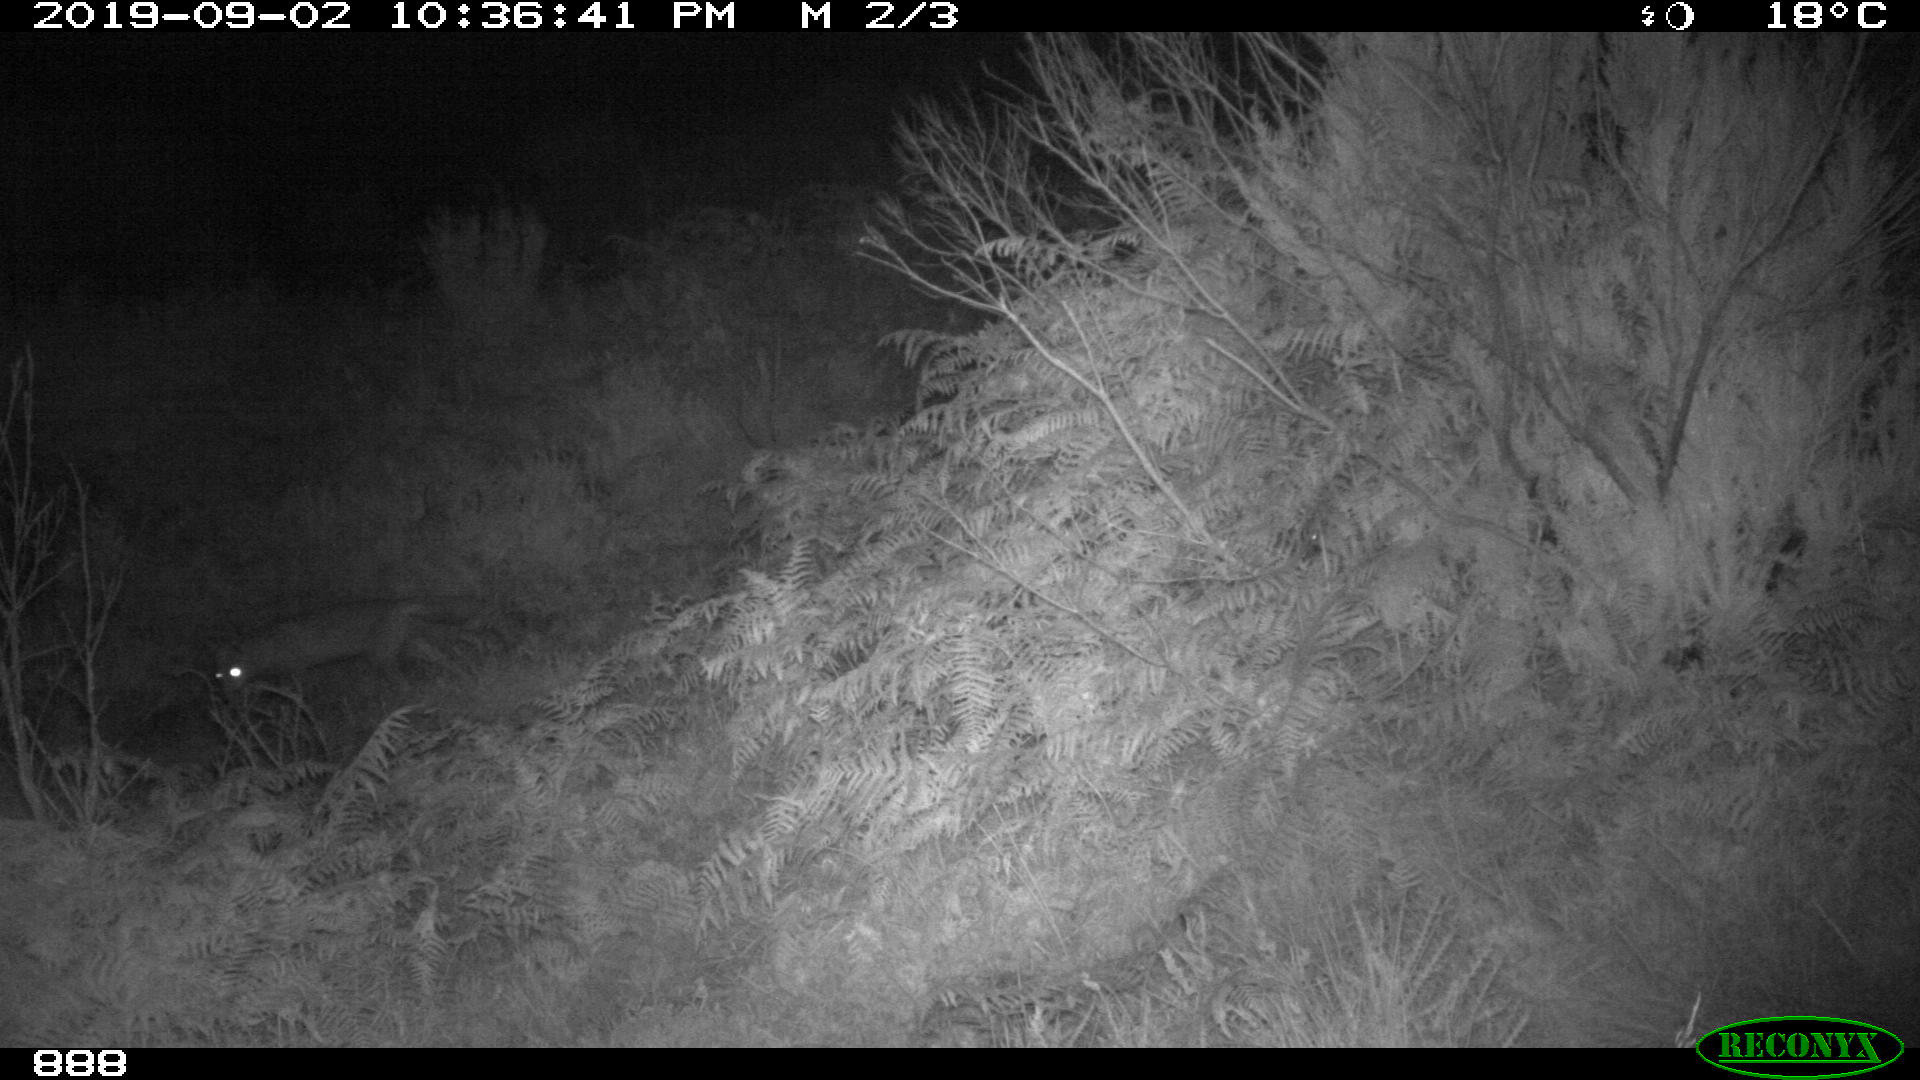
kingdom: Animalia
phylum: Chordata
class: Mammalia
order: Carnivora
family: Canidae
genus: Vulpes
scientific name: Vulpes vulpes
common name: Red fox
